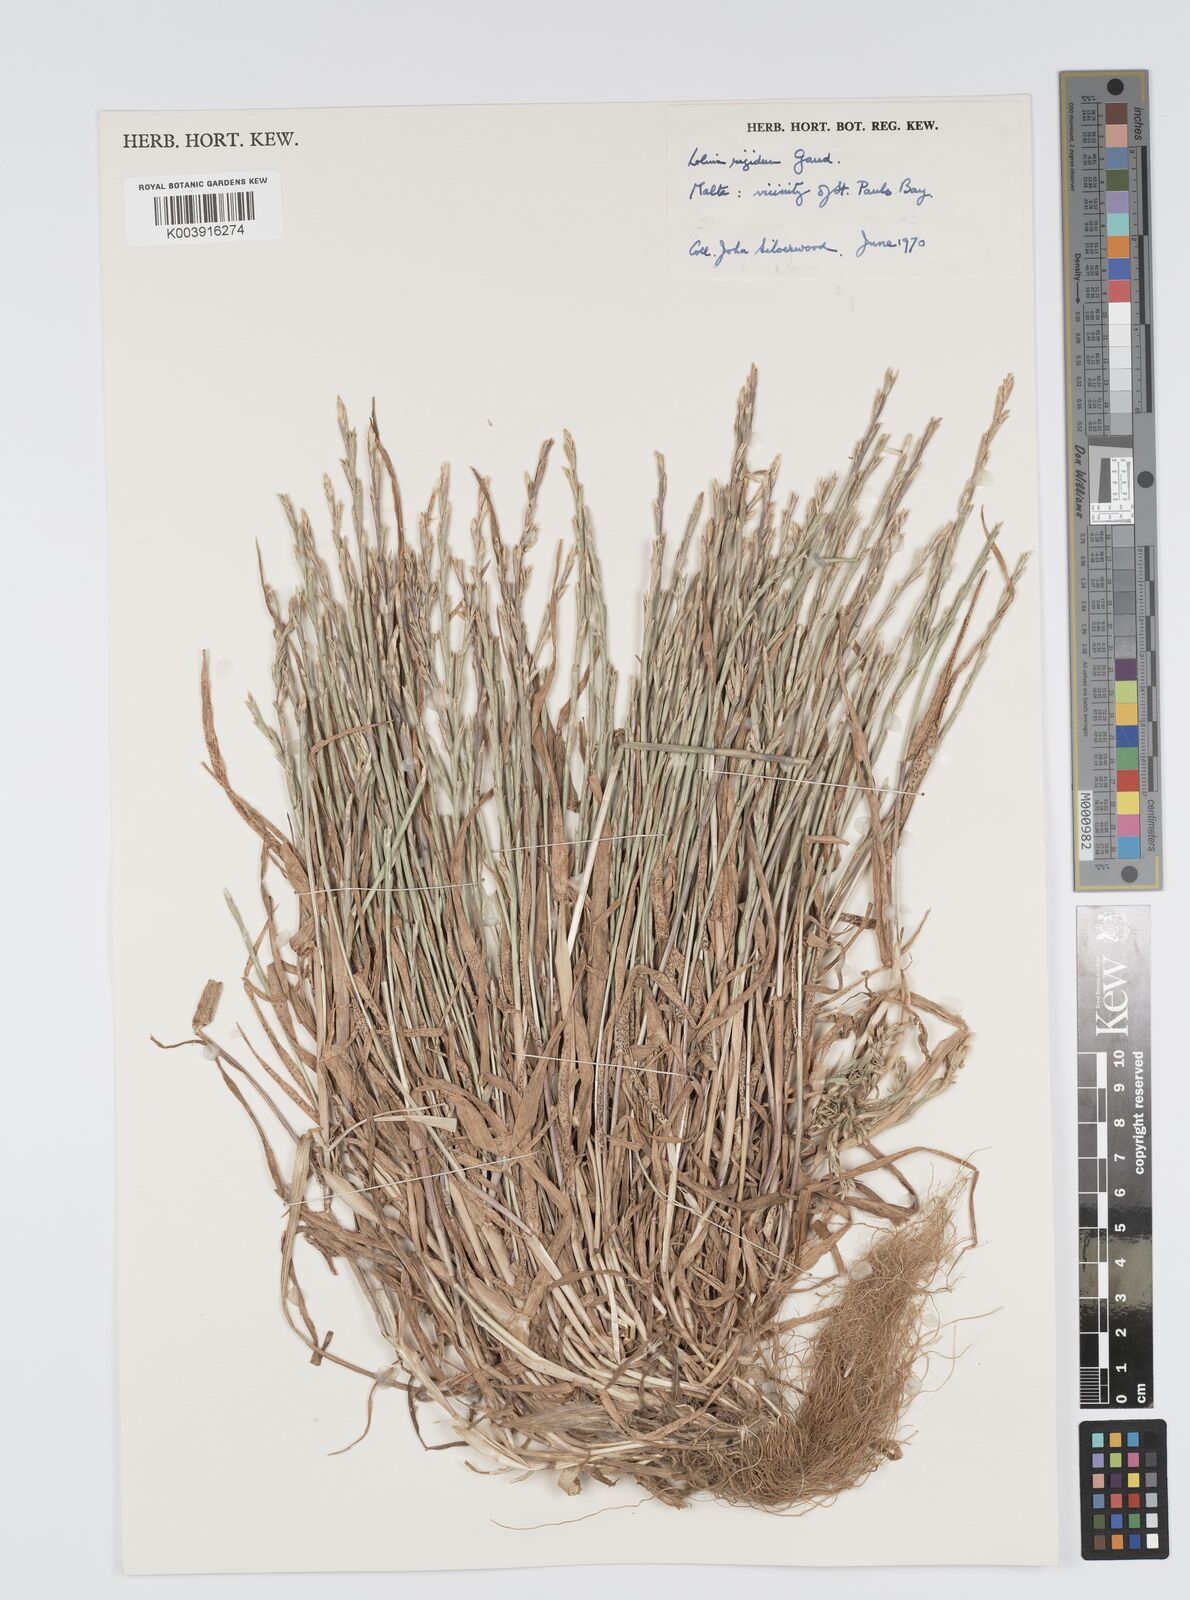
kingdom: Plantae
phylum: Tracheophyta
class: Liliopsida
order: Poales
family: Poaceae
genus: Lolium
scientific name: Lolium rigidum
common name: Wimmera ryegrass
